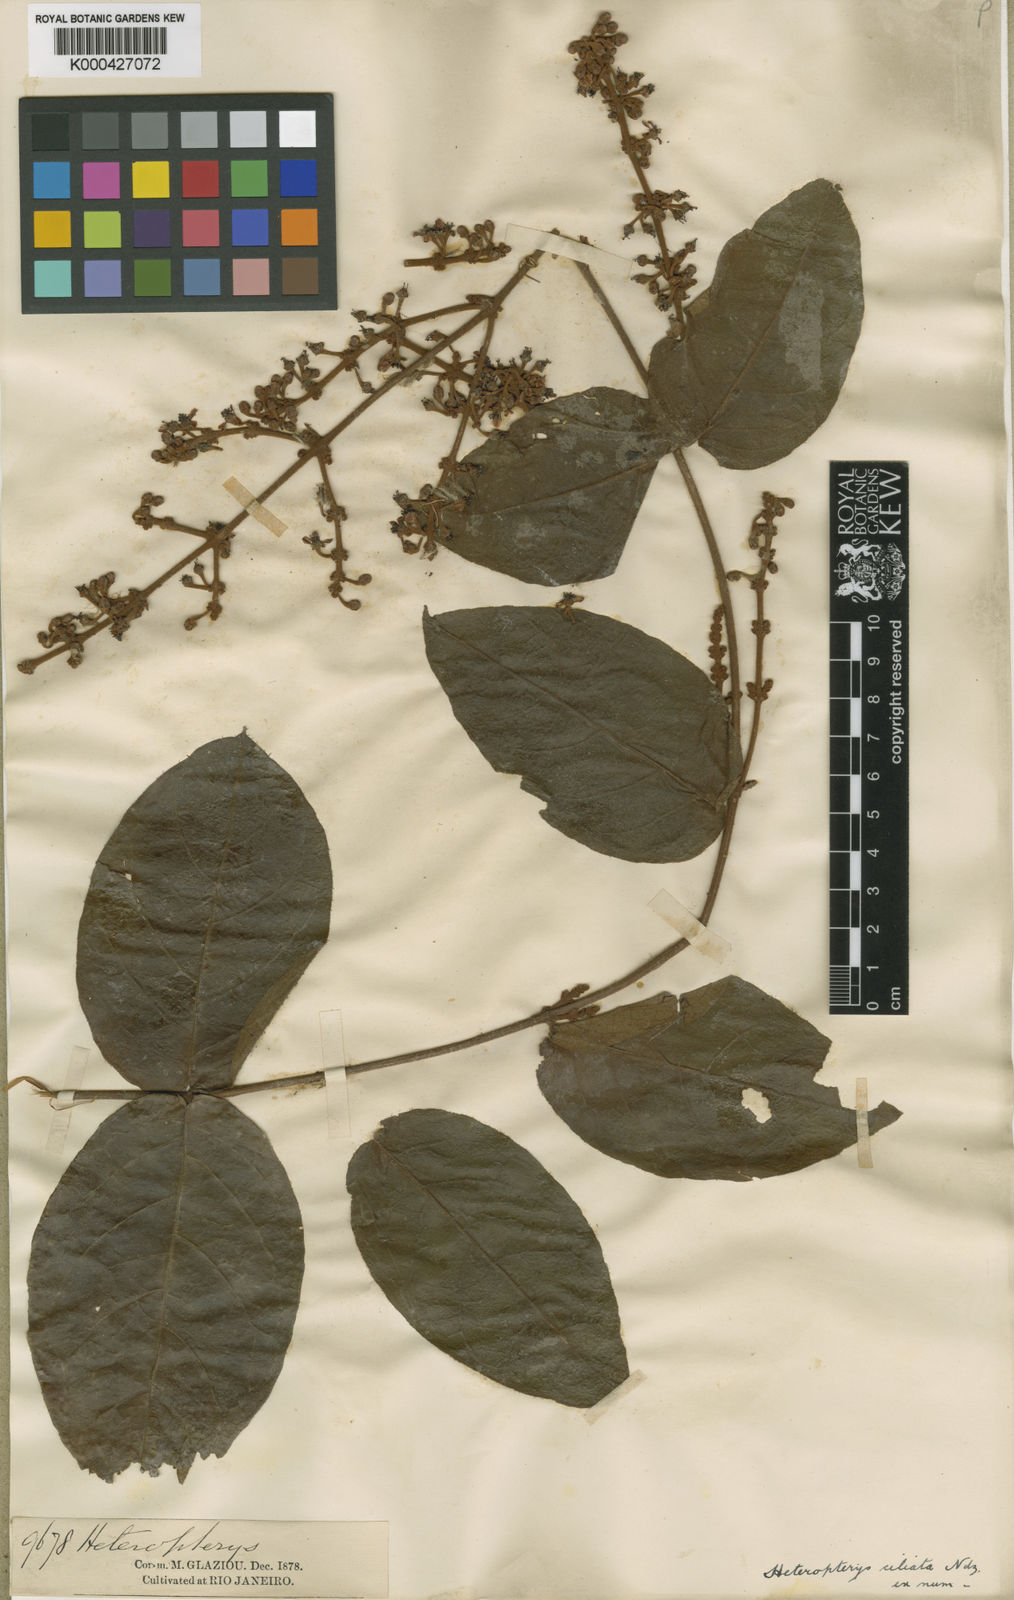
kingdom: Plantae
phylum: Tracheophyta
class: Magnoliopsida
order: Malpighiales
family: Malpighiaceae
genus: Heteropterys
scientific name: Heteropterys ciliata
